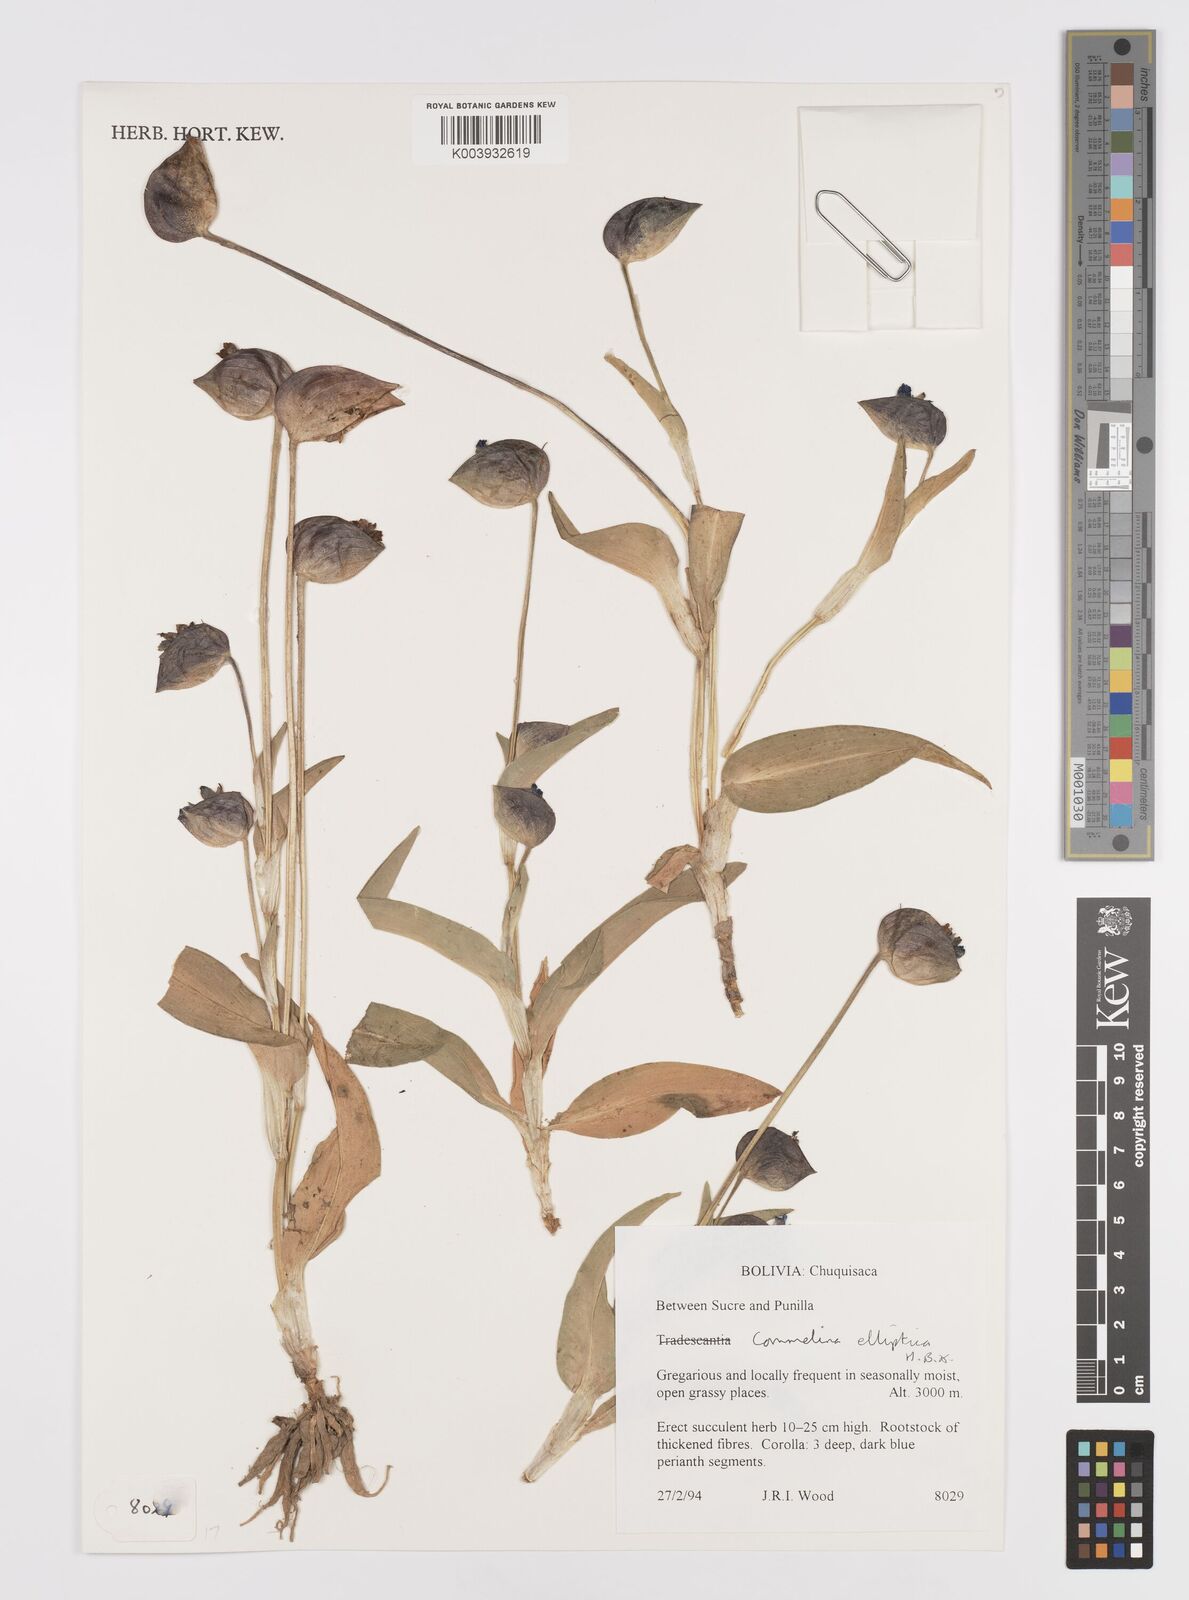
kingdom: Plantae
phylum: Tracheophyta
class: Liliopsida
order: Commelinales
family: Commelinaceae
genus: Commelina
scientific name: Commelina elliptica
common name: Peruvian spiderwort
